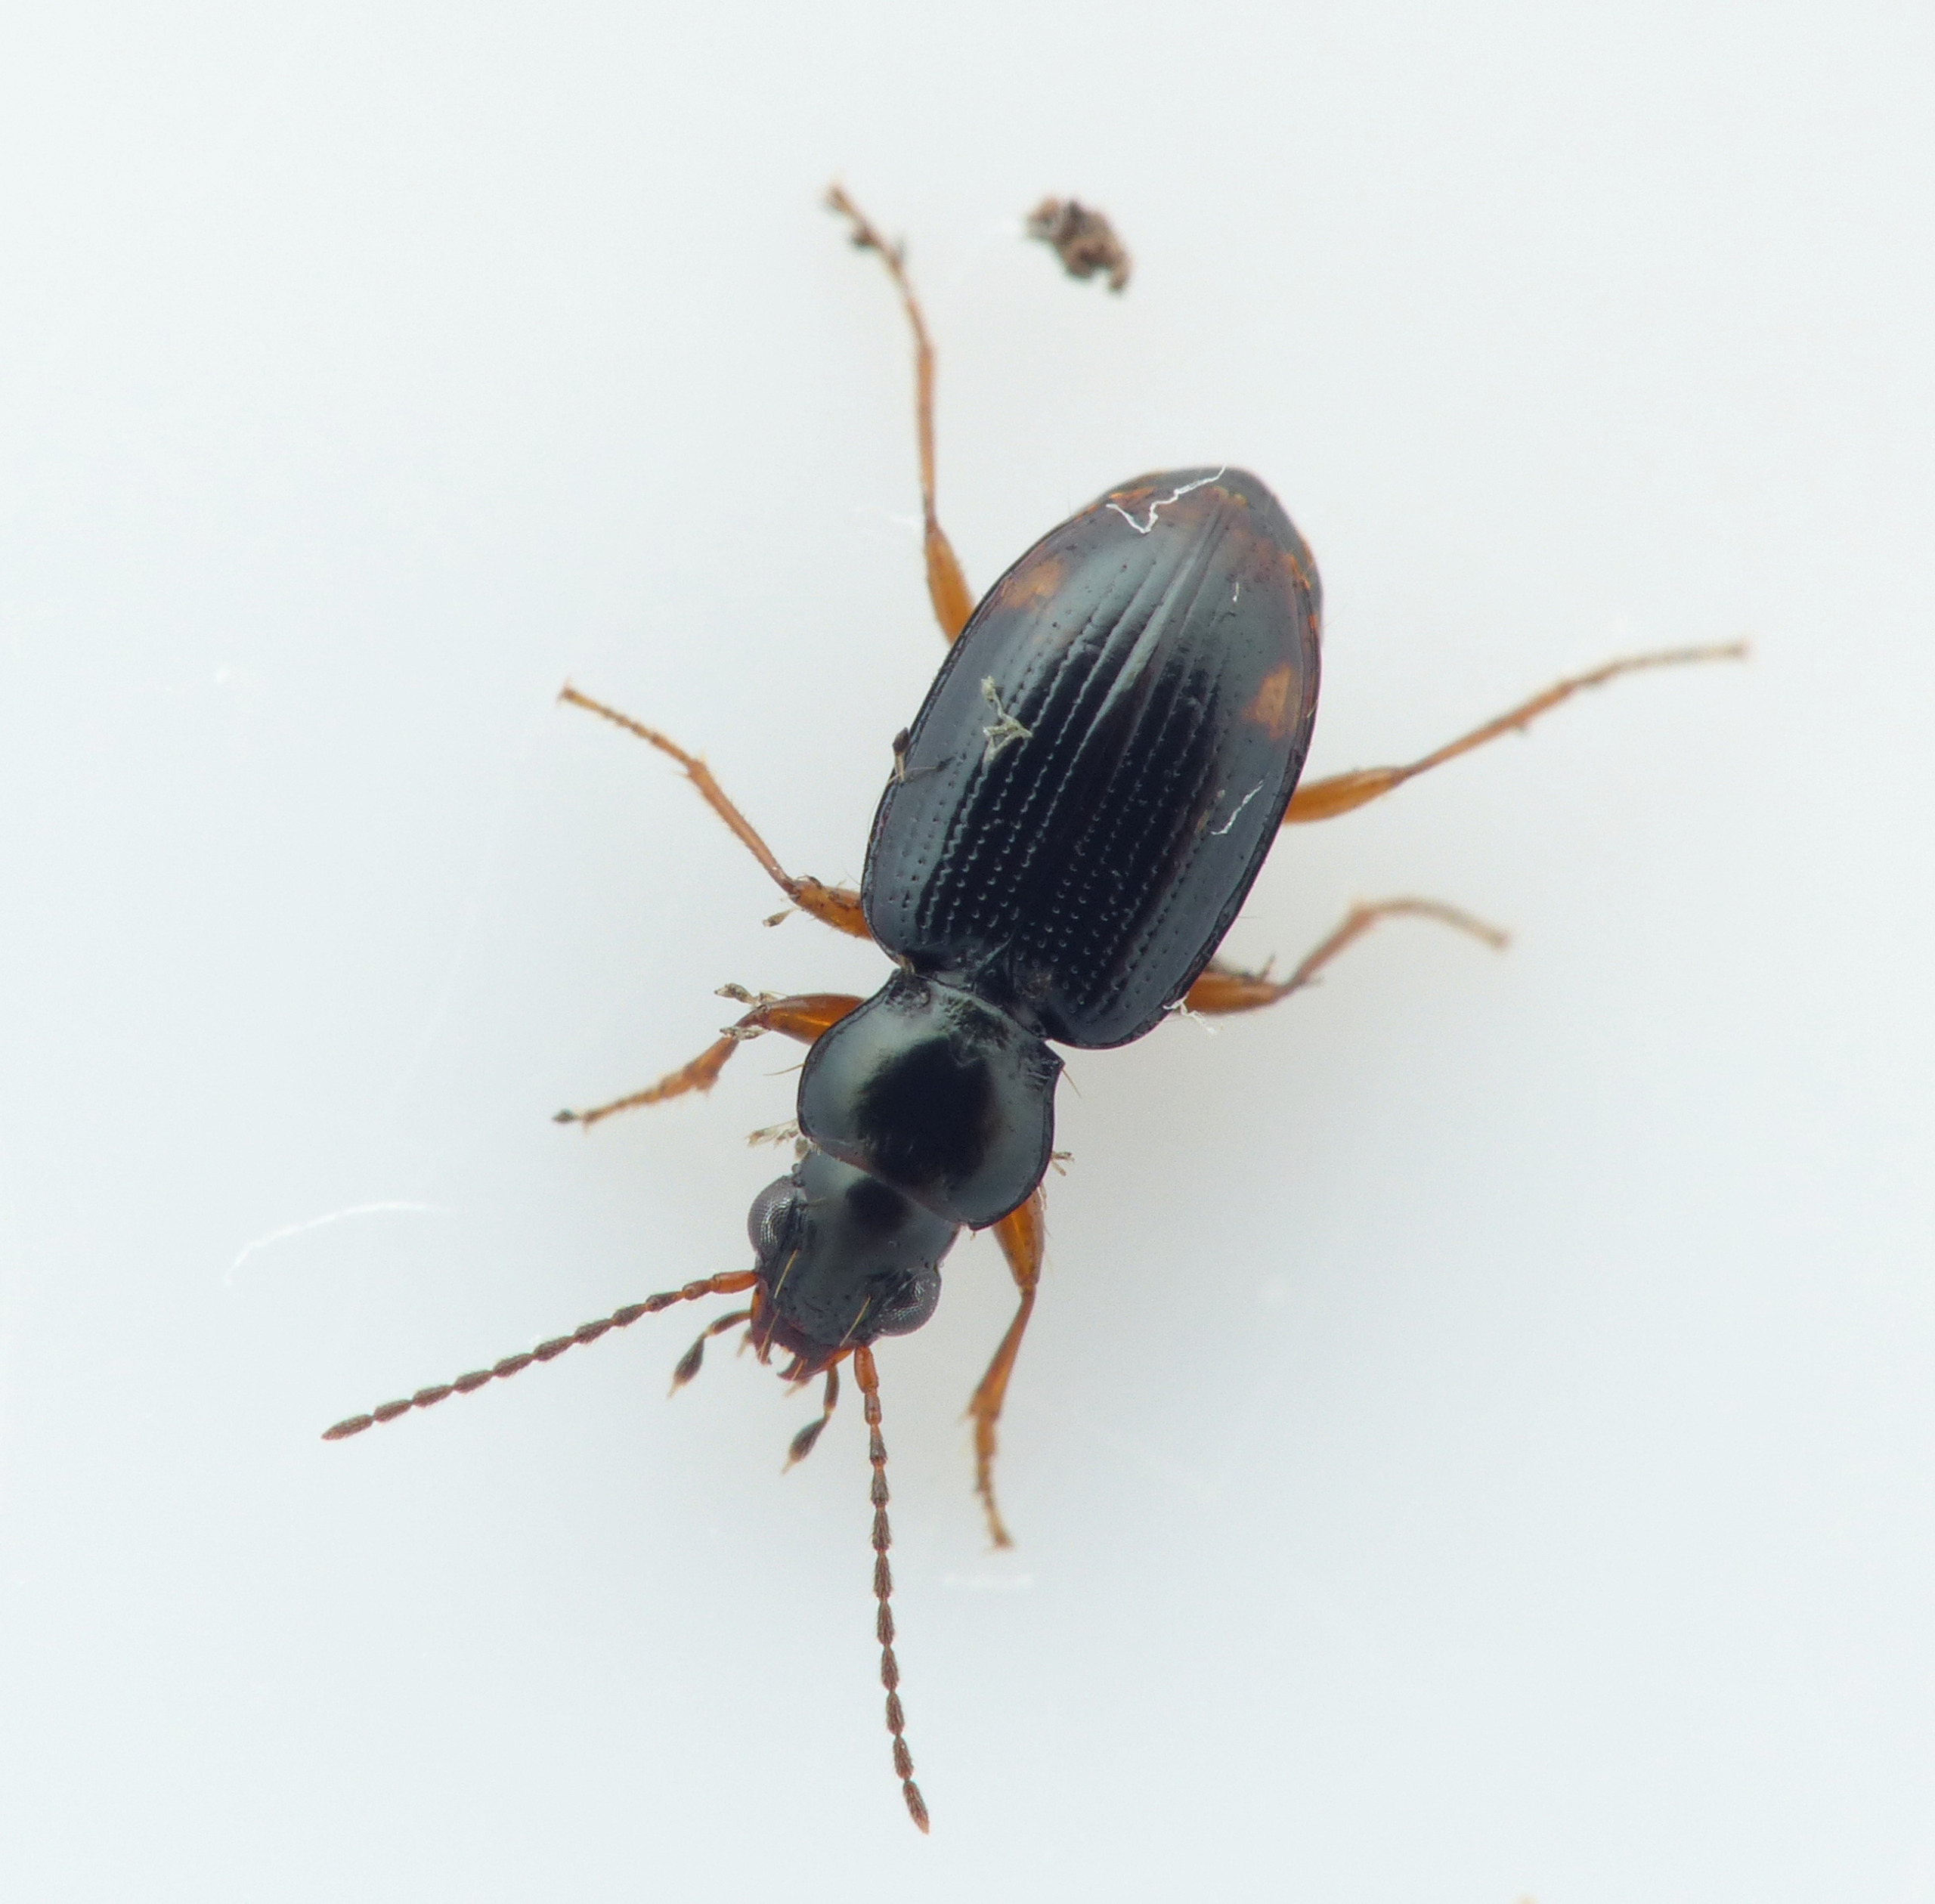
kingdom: Animalia
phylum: Arthropoda
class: Insecta
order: Coleoptera
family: Carabidae
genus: Bembidion
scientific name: Bembidion assimile
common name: Mørkgrønlig glansløber
